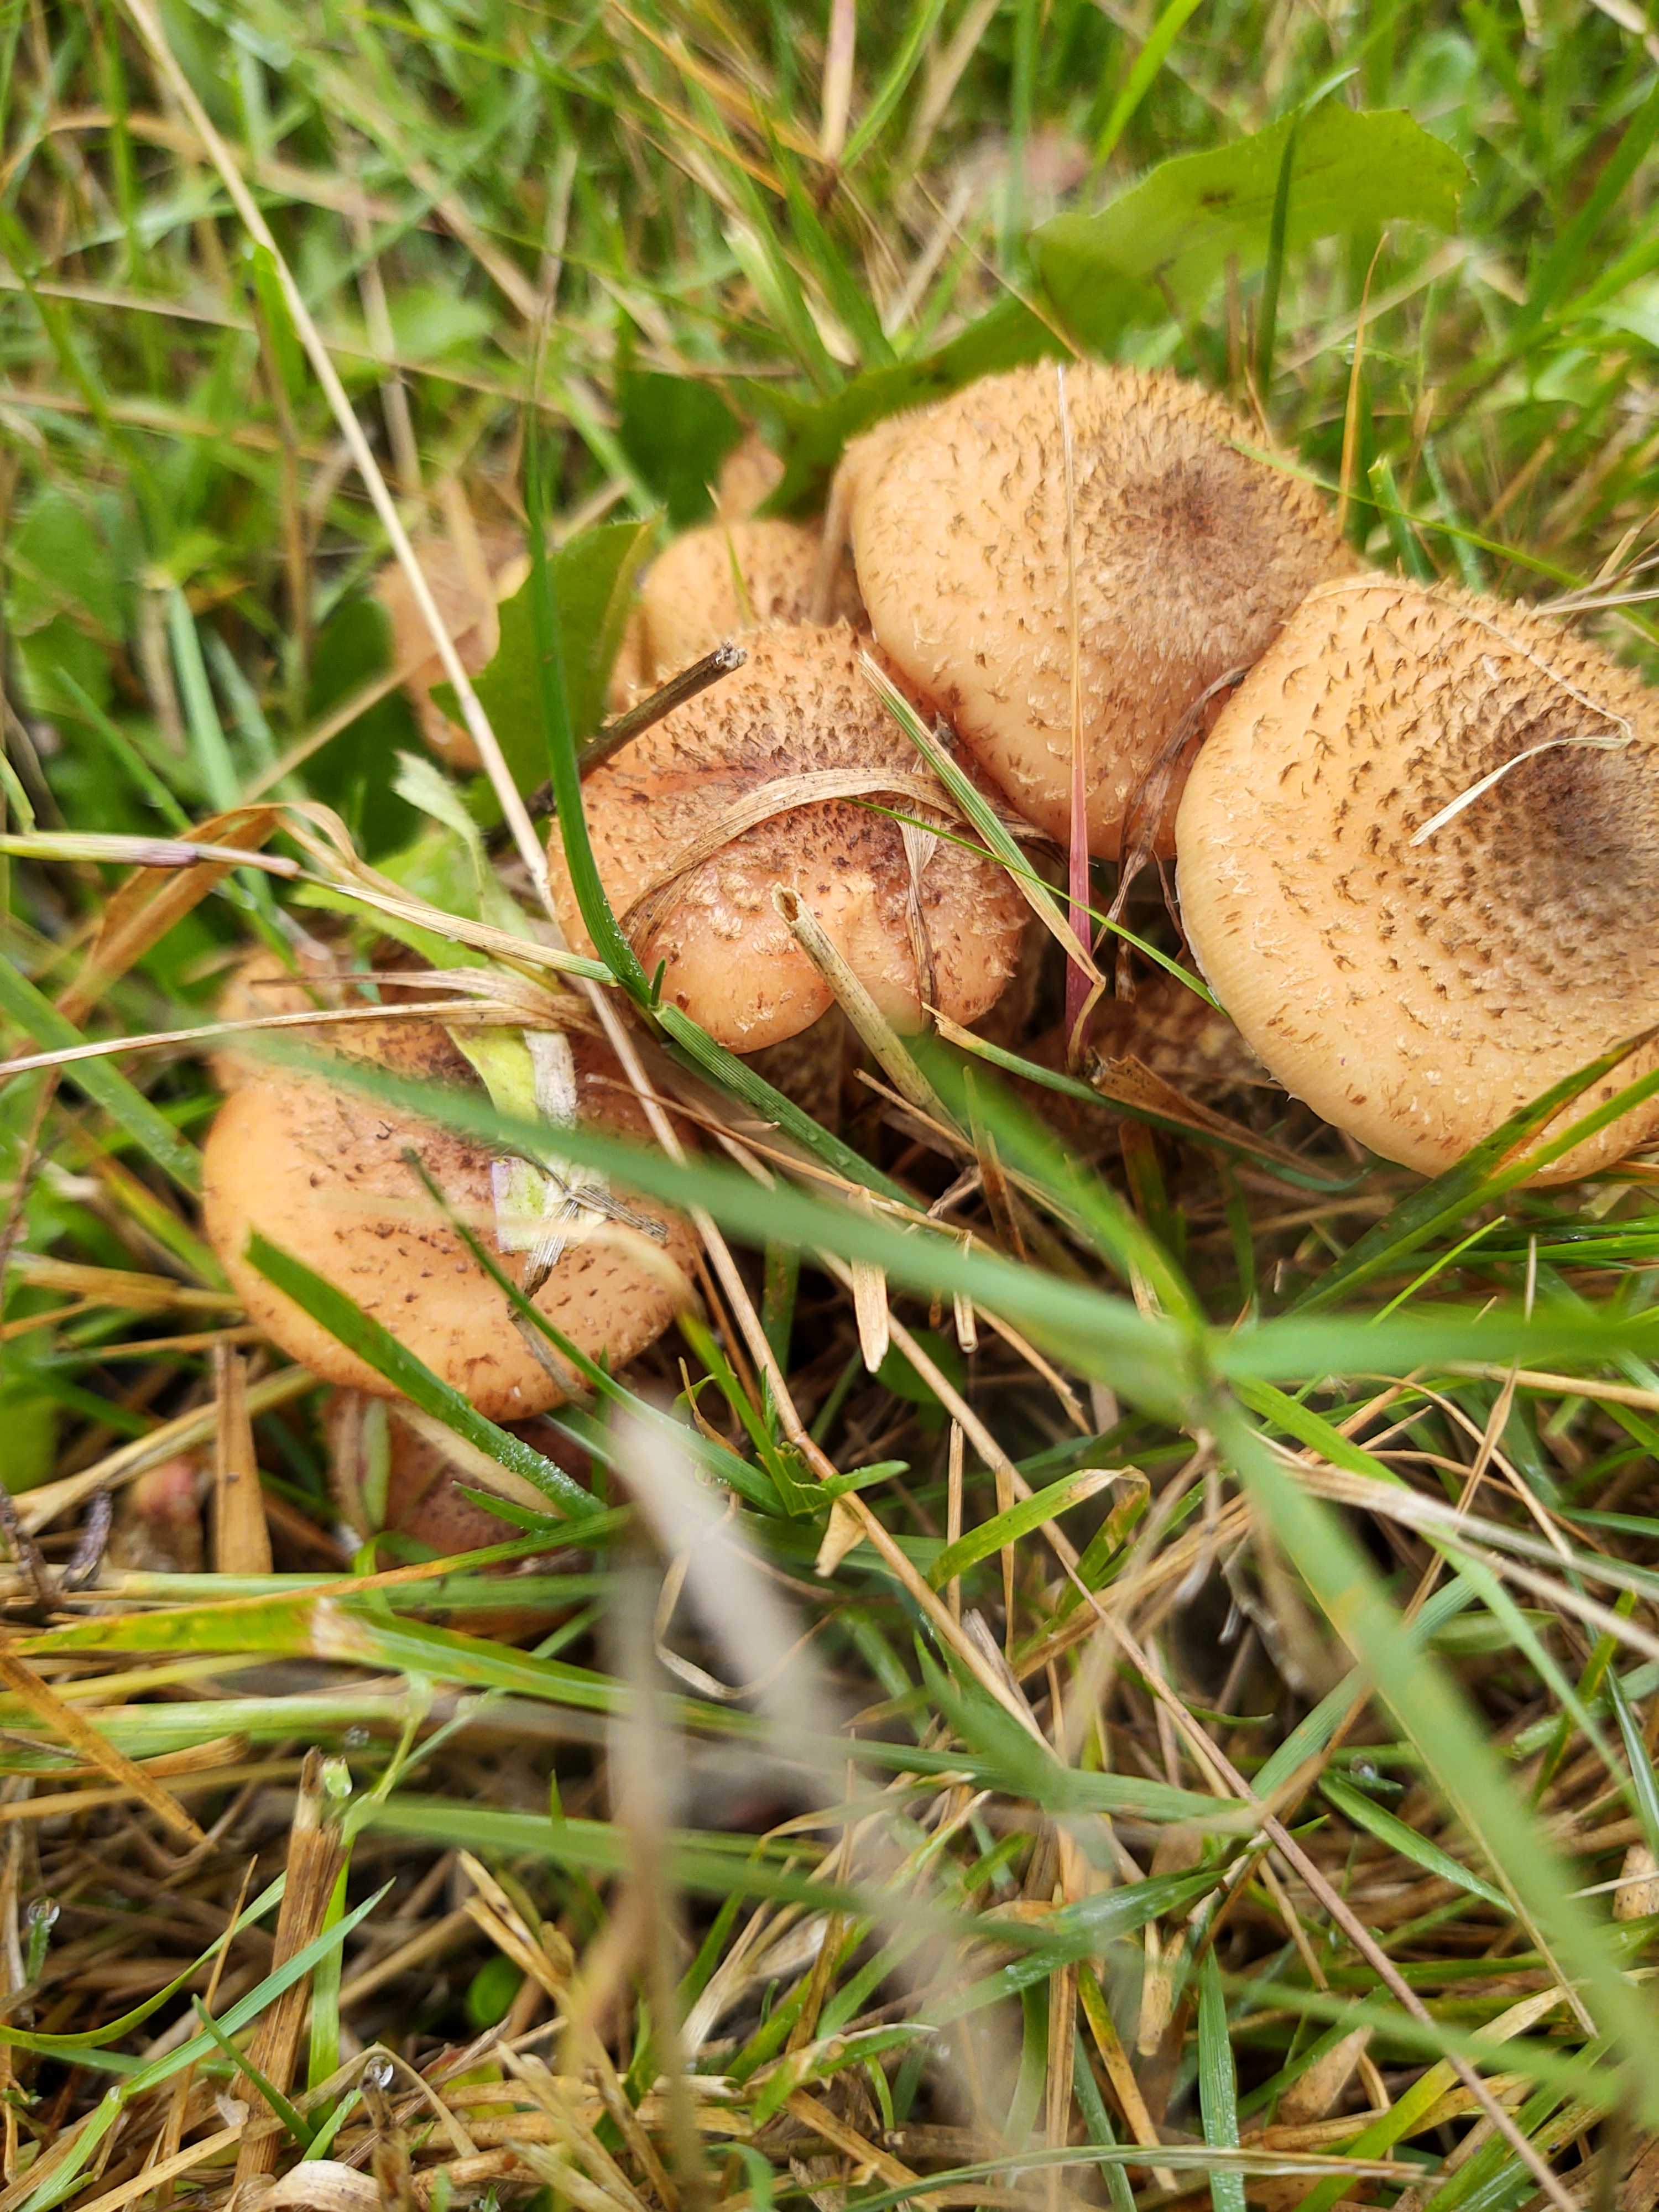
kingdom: Fungi
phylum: Basidiomycota
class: Agaricomycetes
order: Agaricales
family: Physalacriaceae
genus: Armillaria
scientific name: Armillaria ostoyae
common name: mørk honningsvamp
